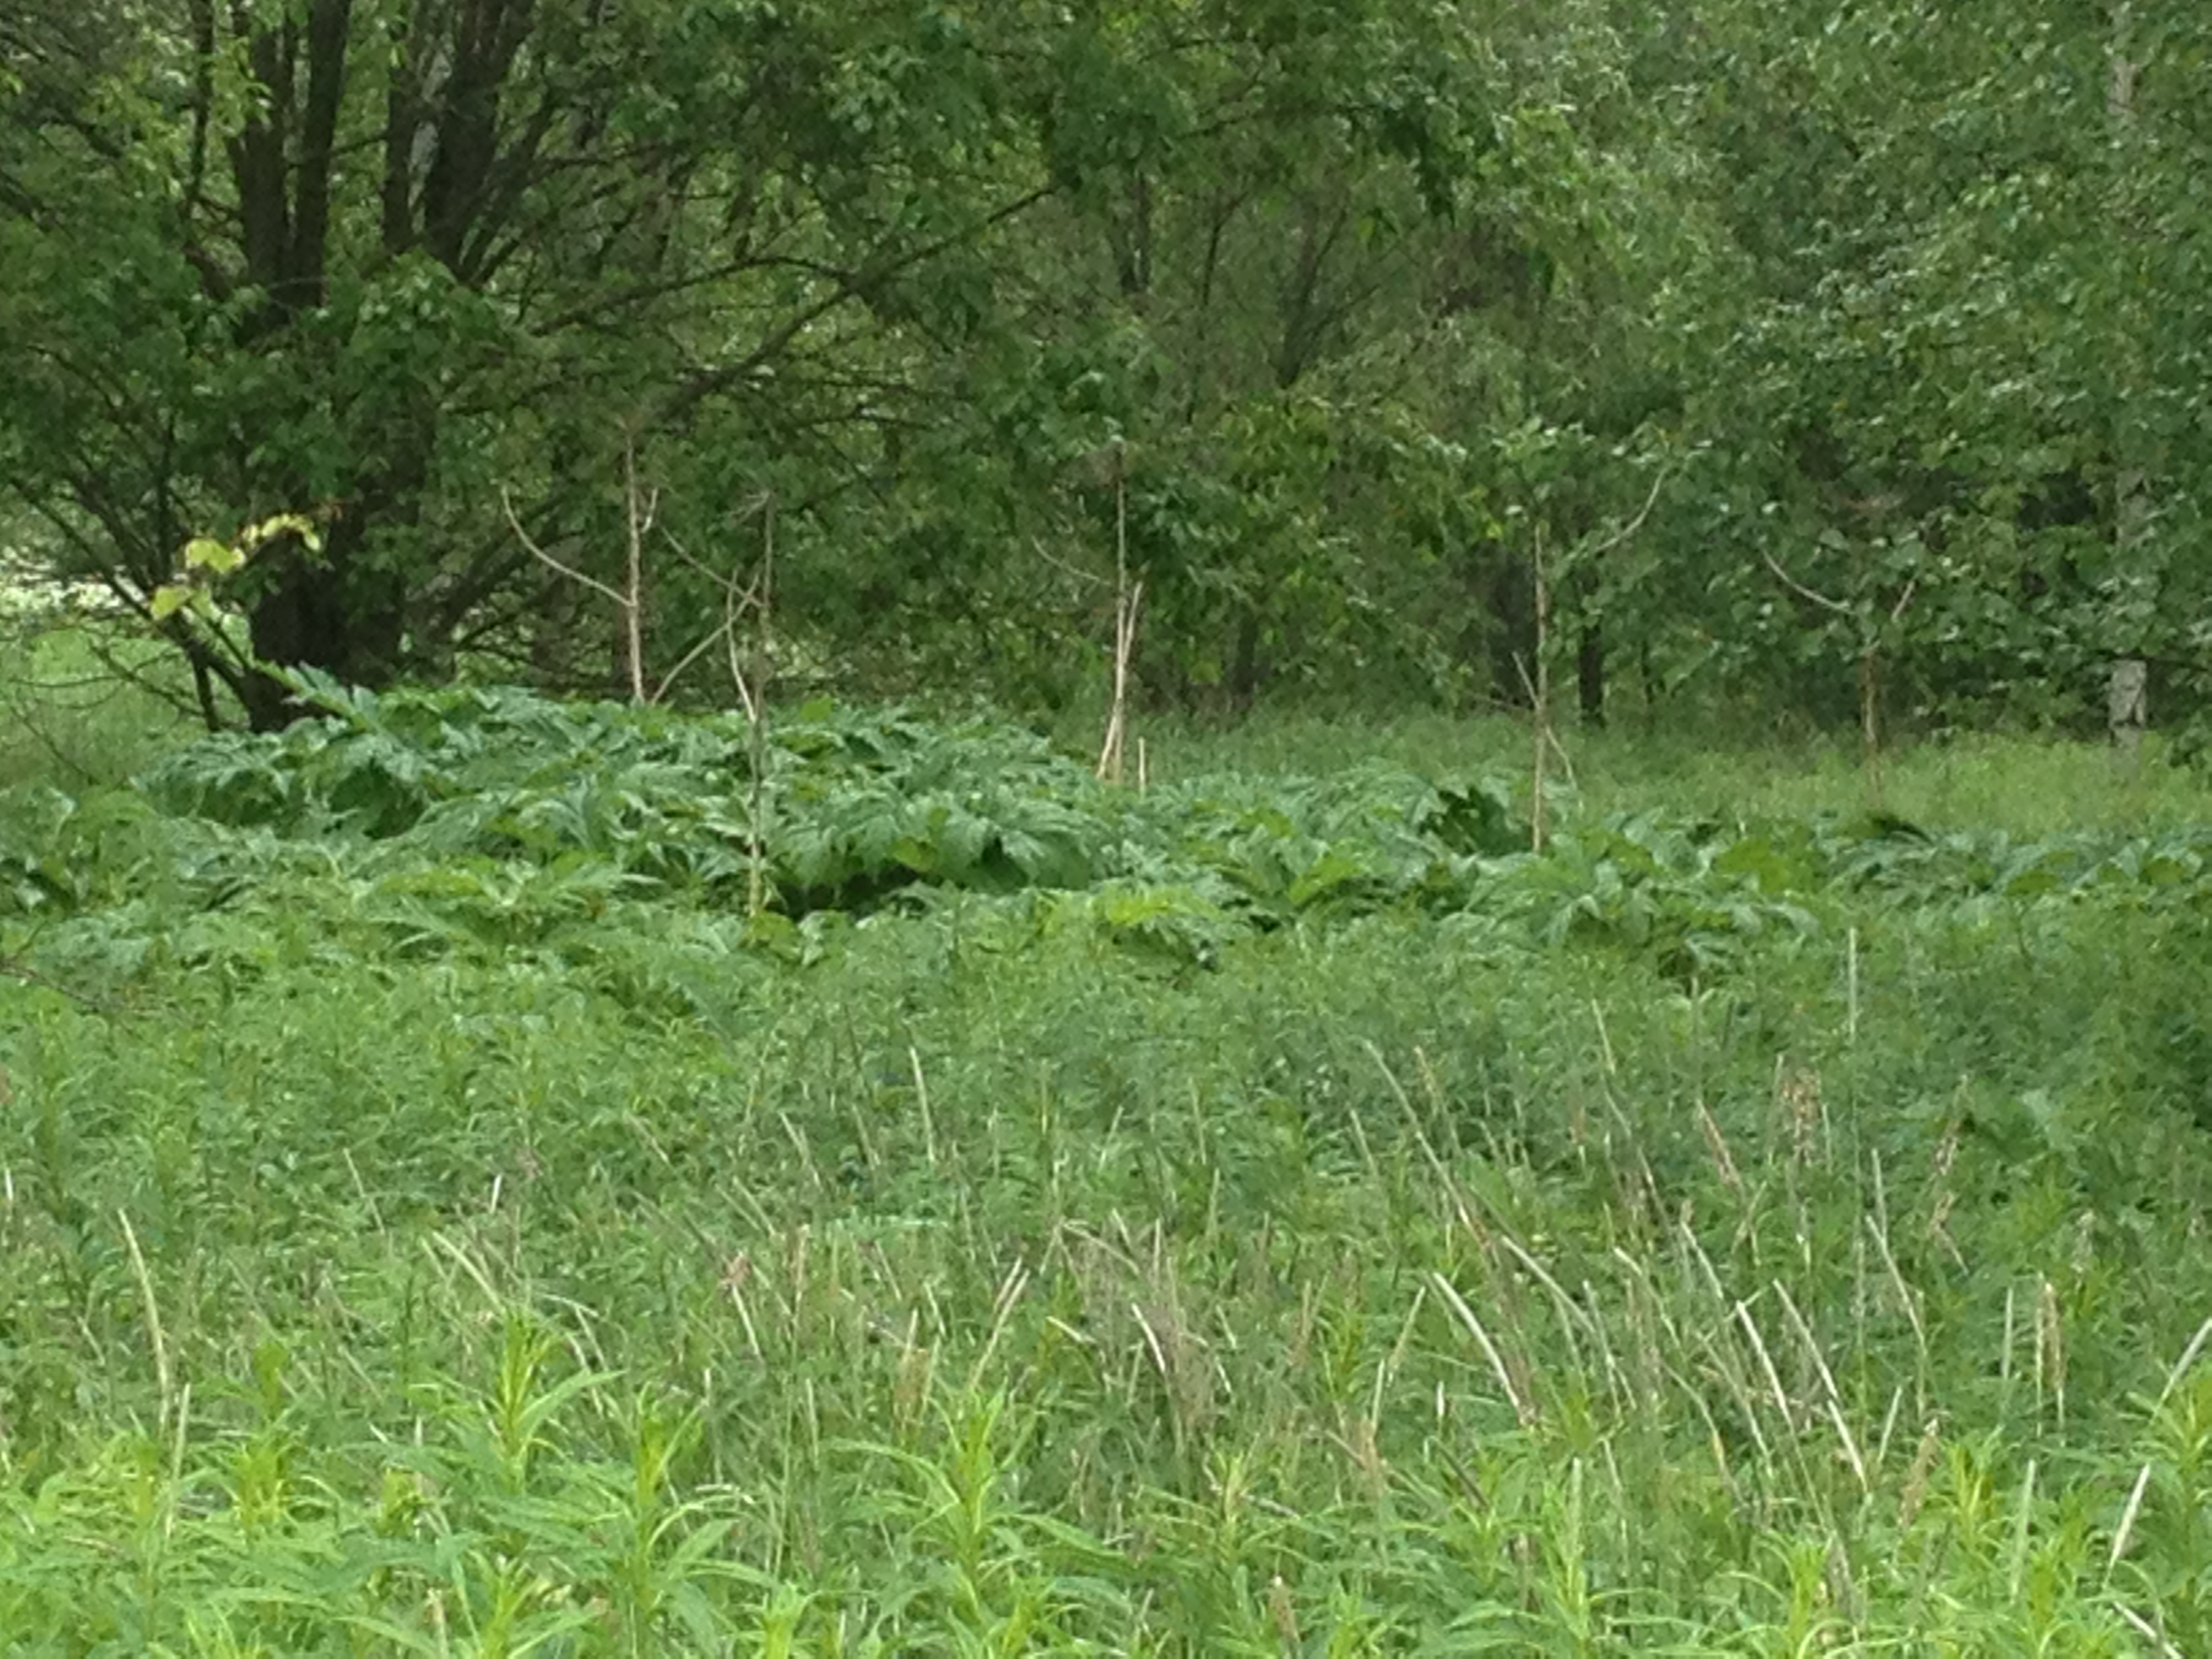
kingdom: Plantae
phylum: Tracheophyta
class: Magnoliopsida
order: Apiales
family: Apiaceae
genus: Heracleum
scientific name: Heracleum
